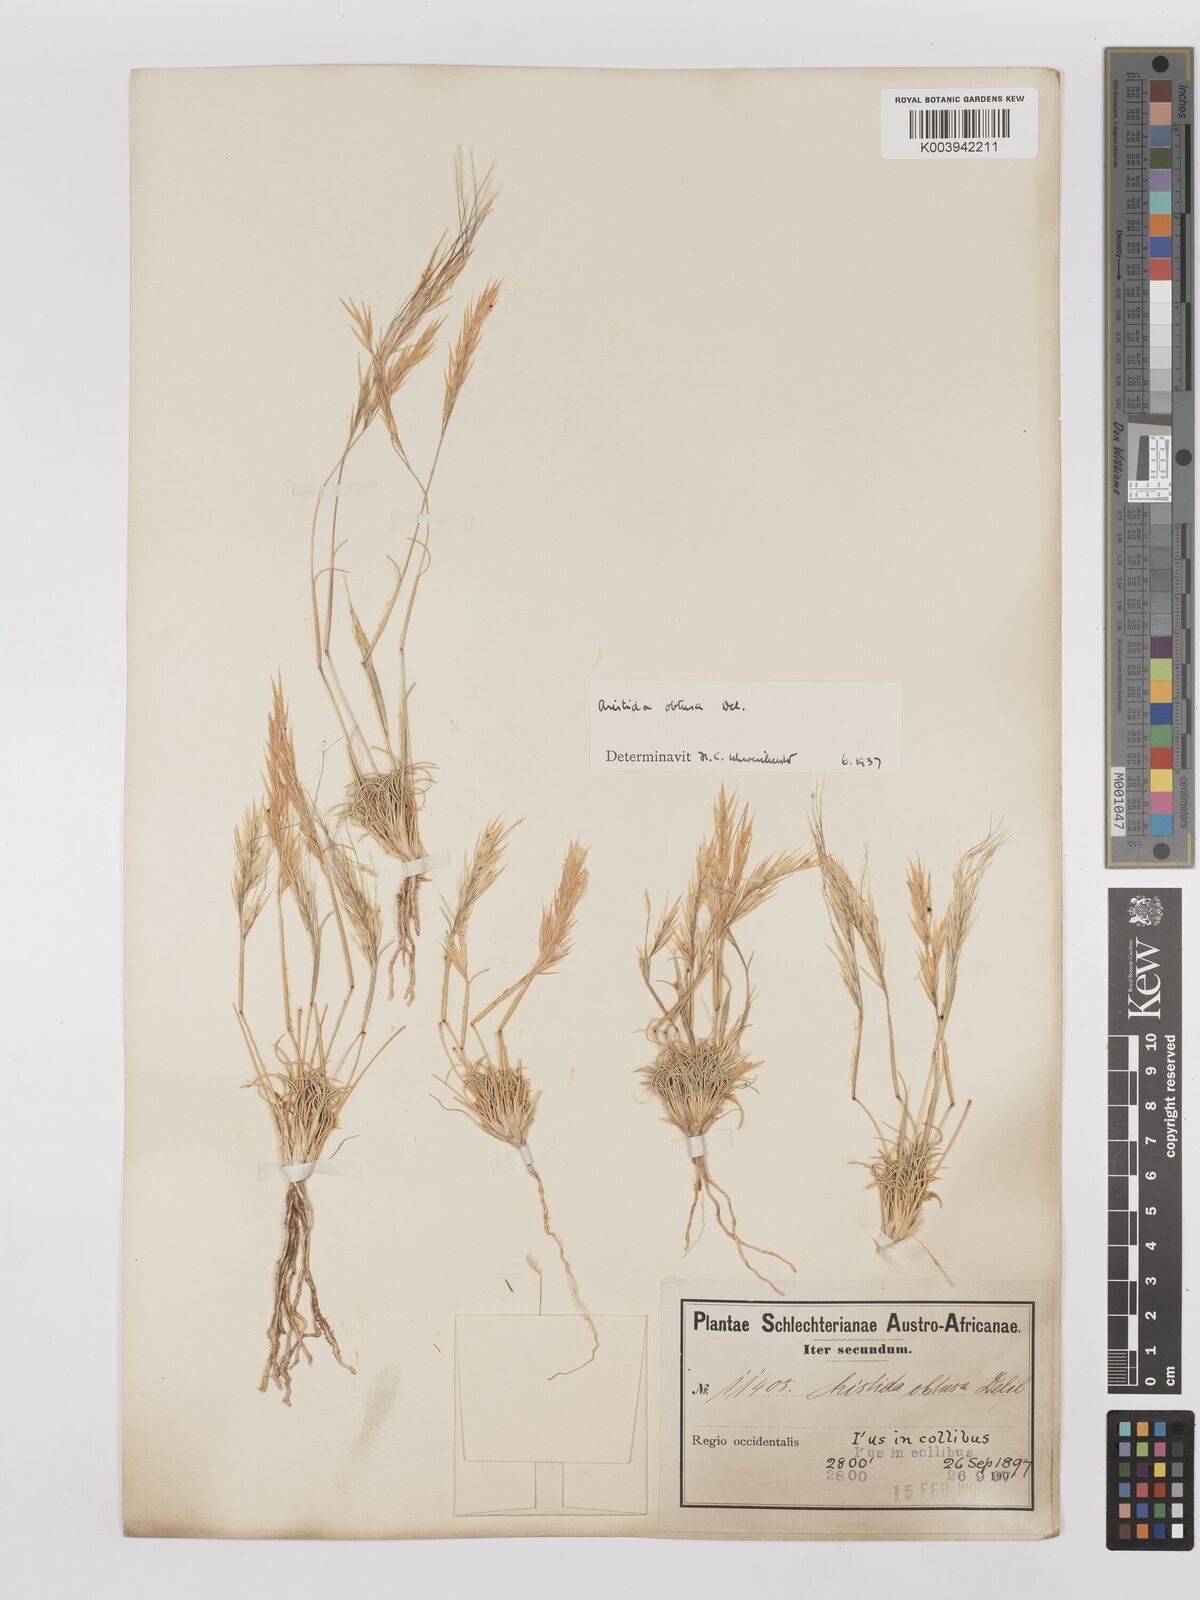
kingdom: Plantae
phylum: Tracheophyta
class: Liliopsida
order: Poales
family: Poaceae
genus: Stipagrostis
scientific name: Stipagrostis obtusa
